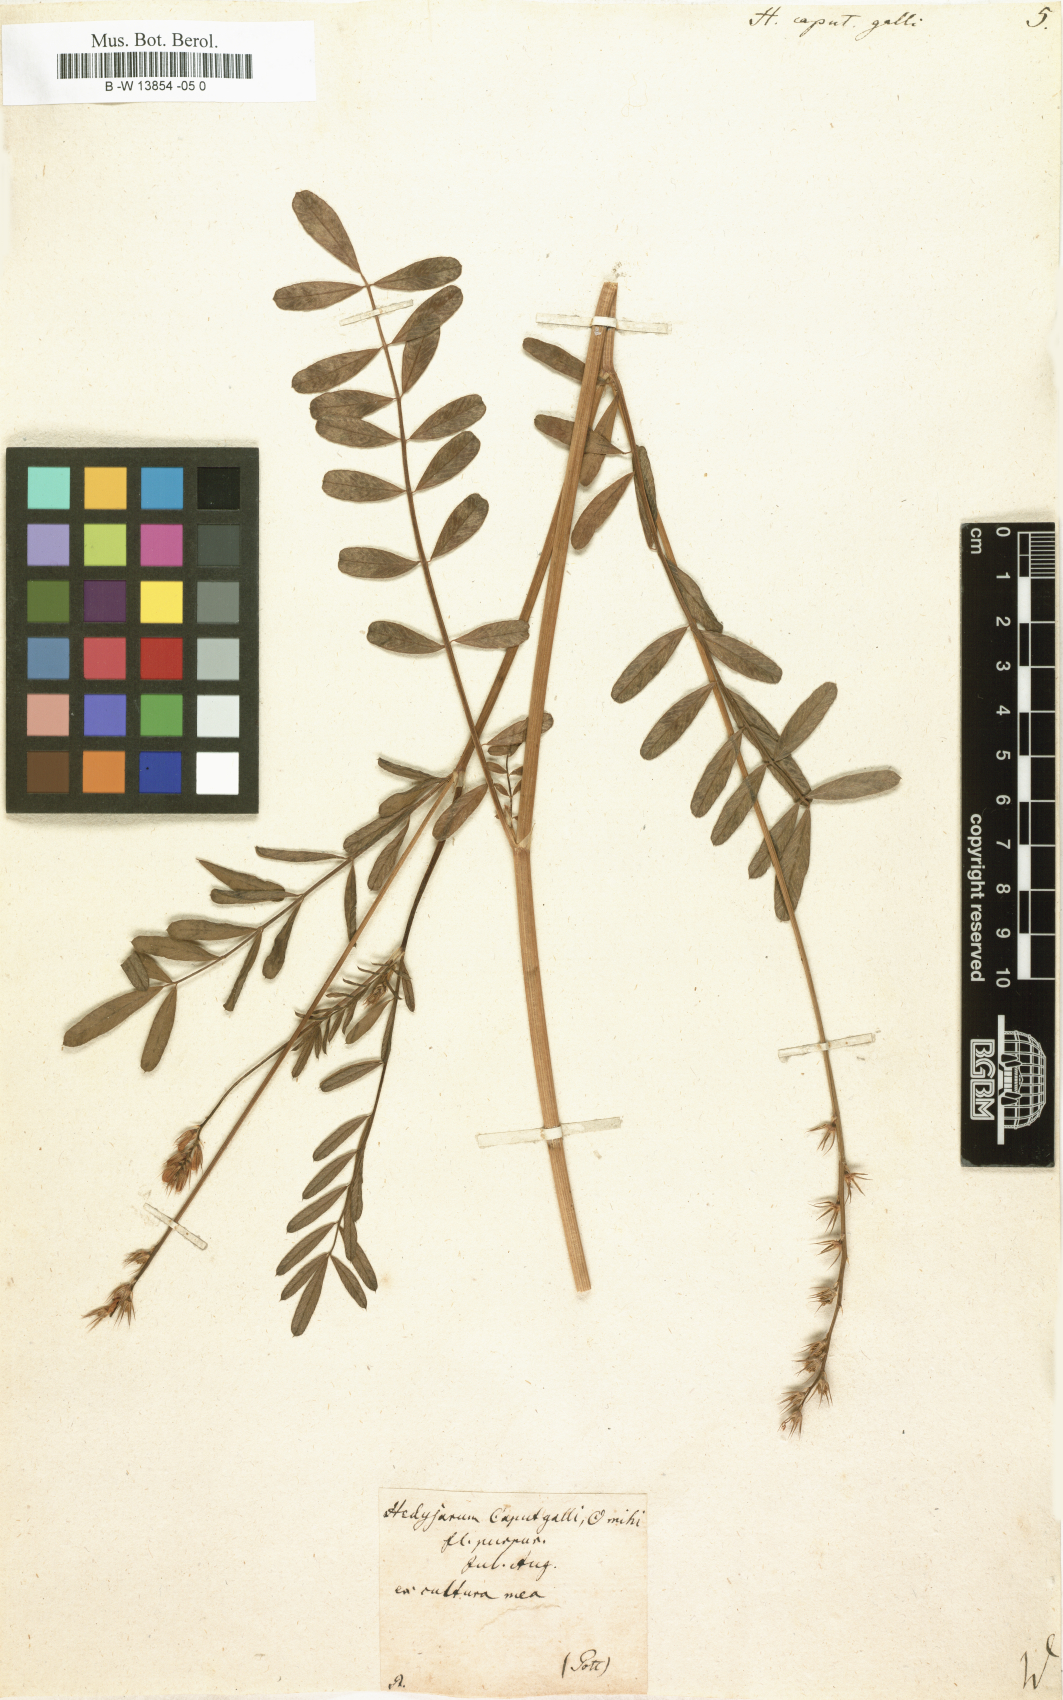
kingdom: Plantae
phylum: Tracheophyta
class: Magnoliopsida
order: Fabales
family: Fabaceae
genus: Onobrychis
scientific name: Onobrychis caput-galli
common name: Cockscomb sainfoin
